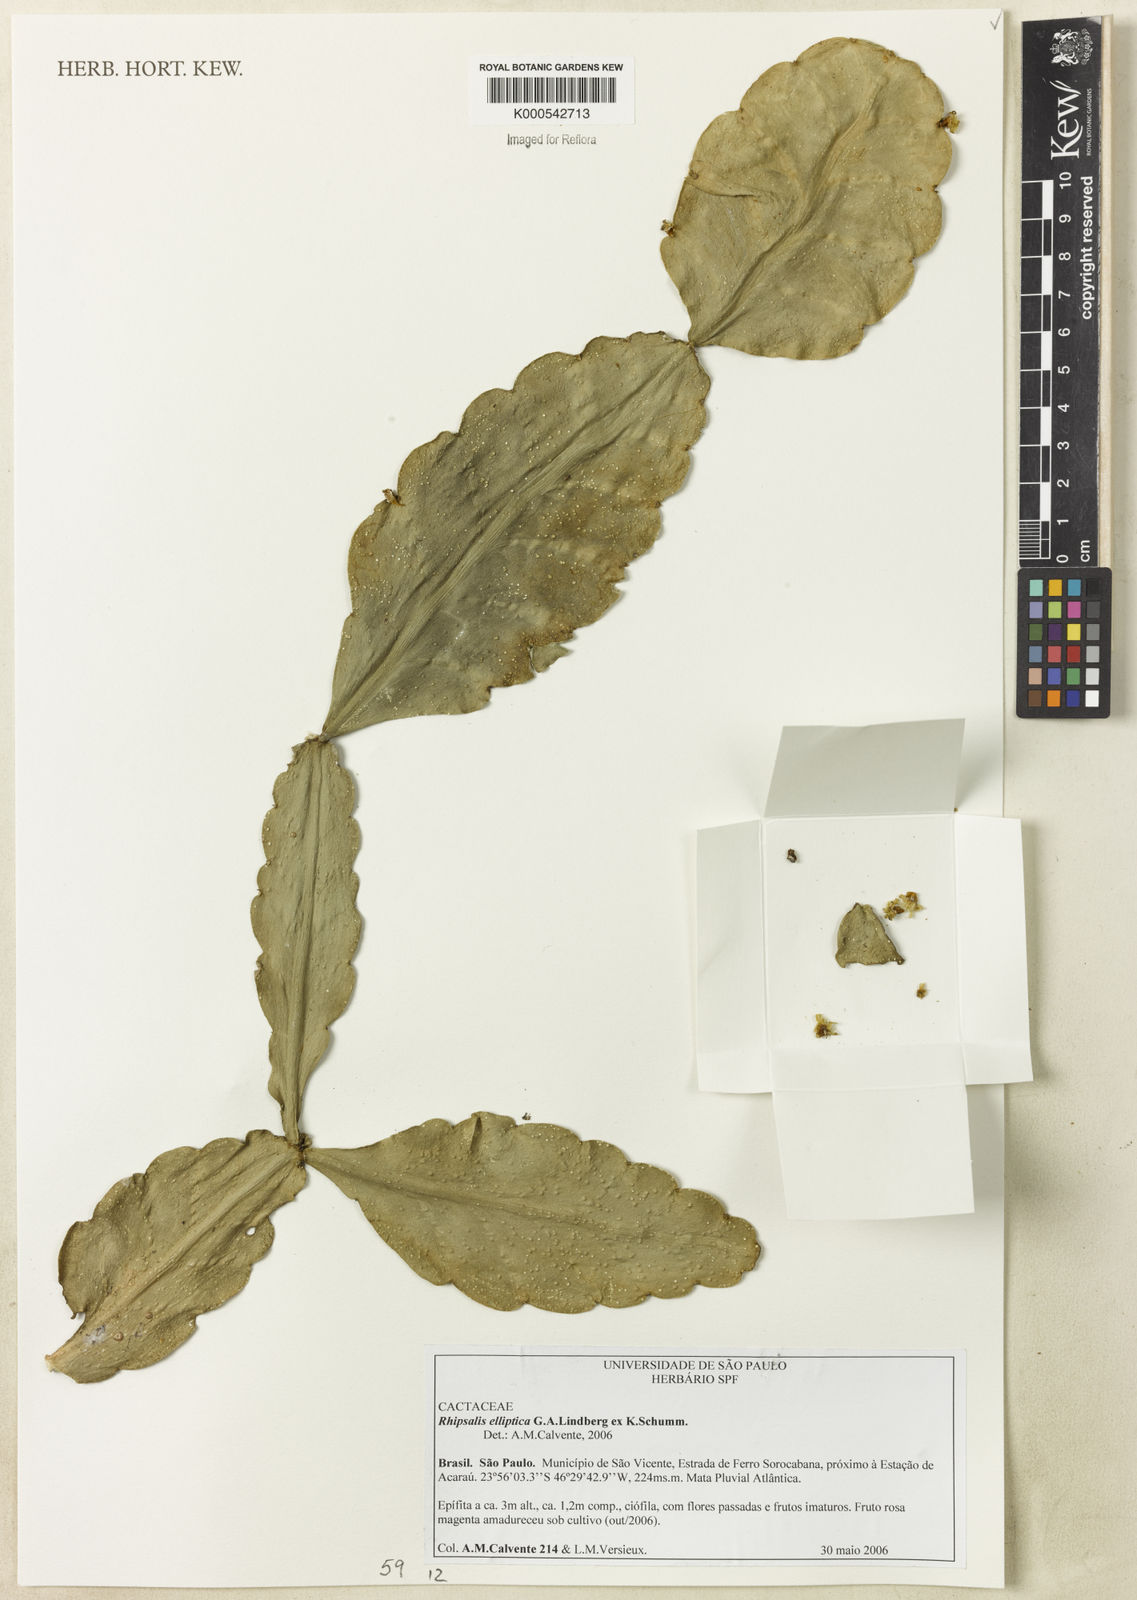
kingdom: Plantae
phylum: Tracheophyta
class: Magnoliopsida
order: Caryophyllales
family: Cactaceae
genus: Rhipsalis
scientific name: Rhipsalis elliptica
